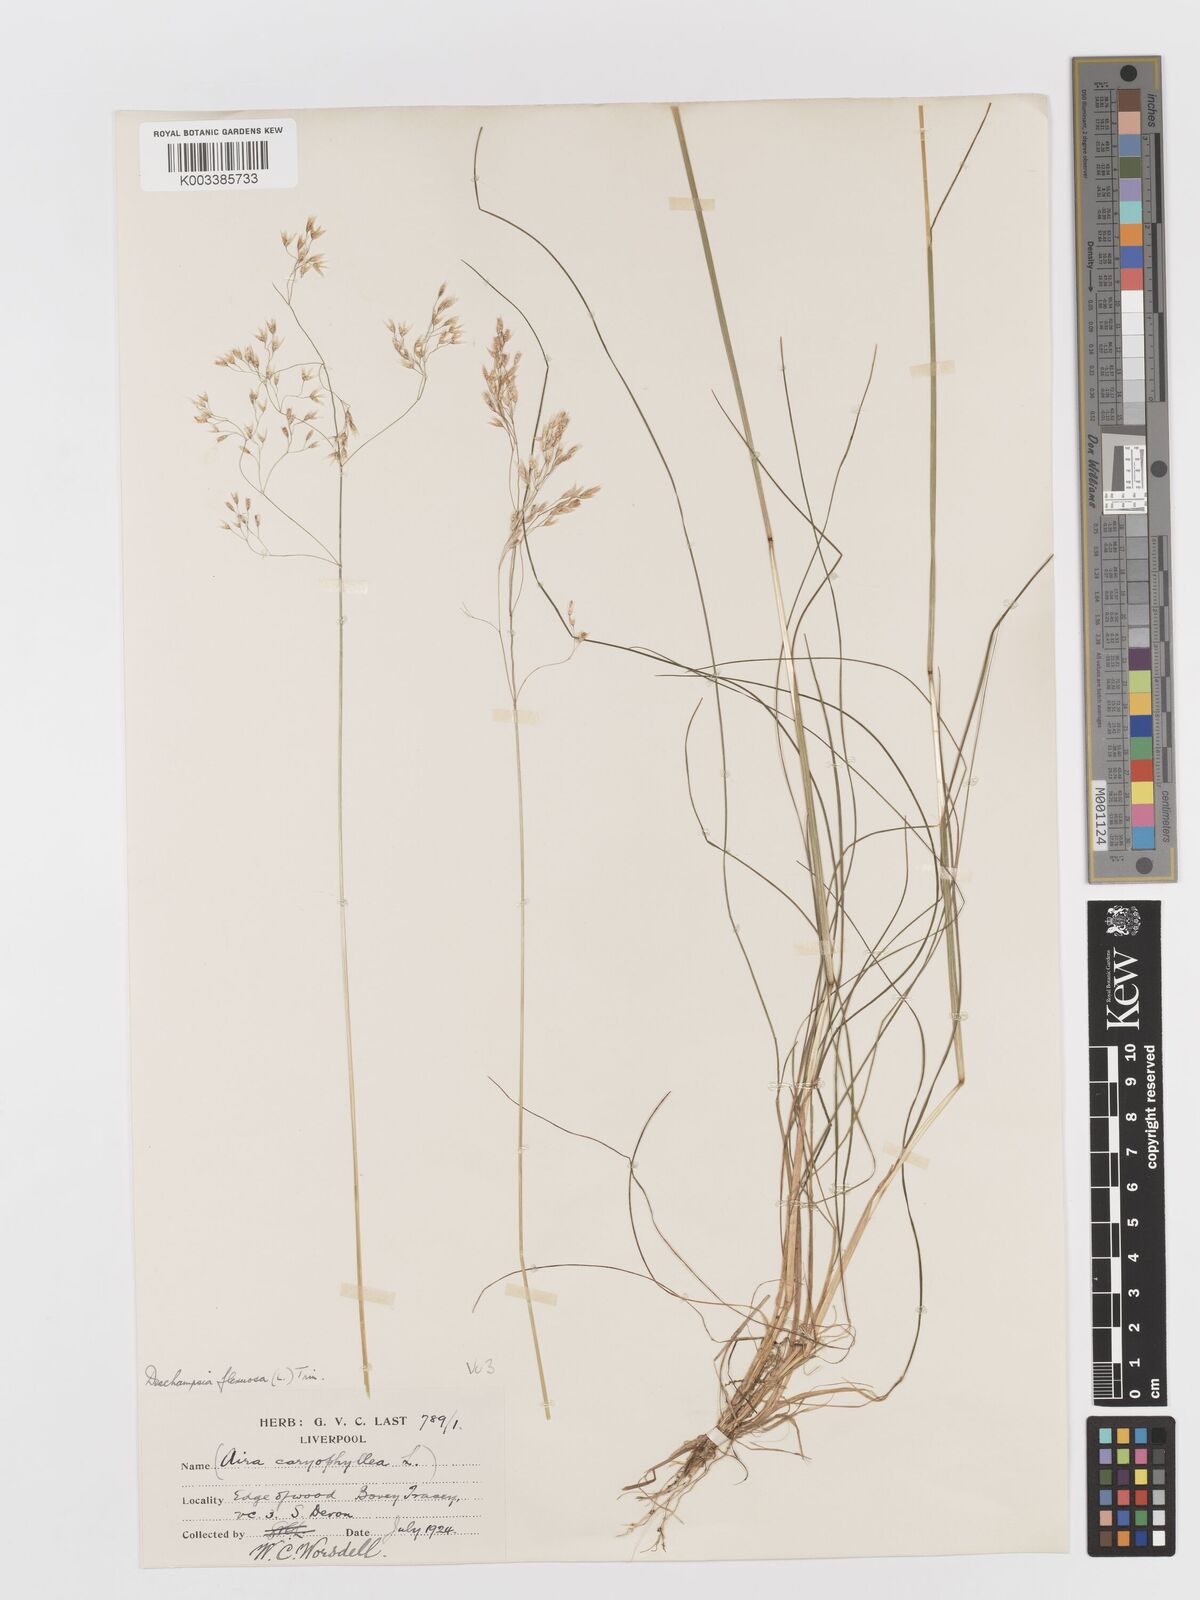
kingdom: Plantae
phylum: Tracheophyta
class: Liliopsida
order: Poales
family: Poaceae
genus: Avenella
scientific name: Avenella flexuosa
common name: Wavy hairgrass
